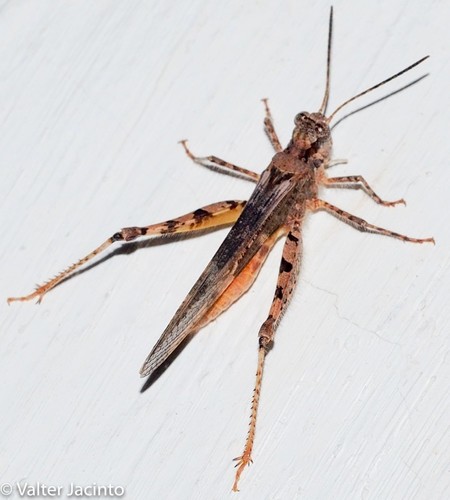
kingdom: Animalia
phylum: Arthropoda
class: Insecta
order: Orthoptera
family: Acrididae
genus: Acrotylus
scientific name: Acrotylus patruelis
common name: Slender burrowing grasshopper
